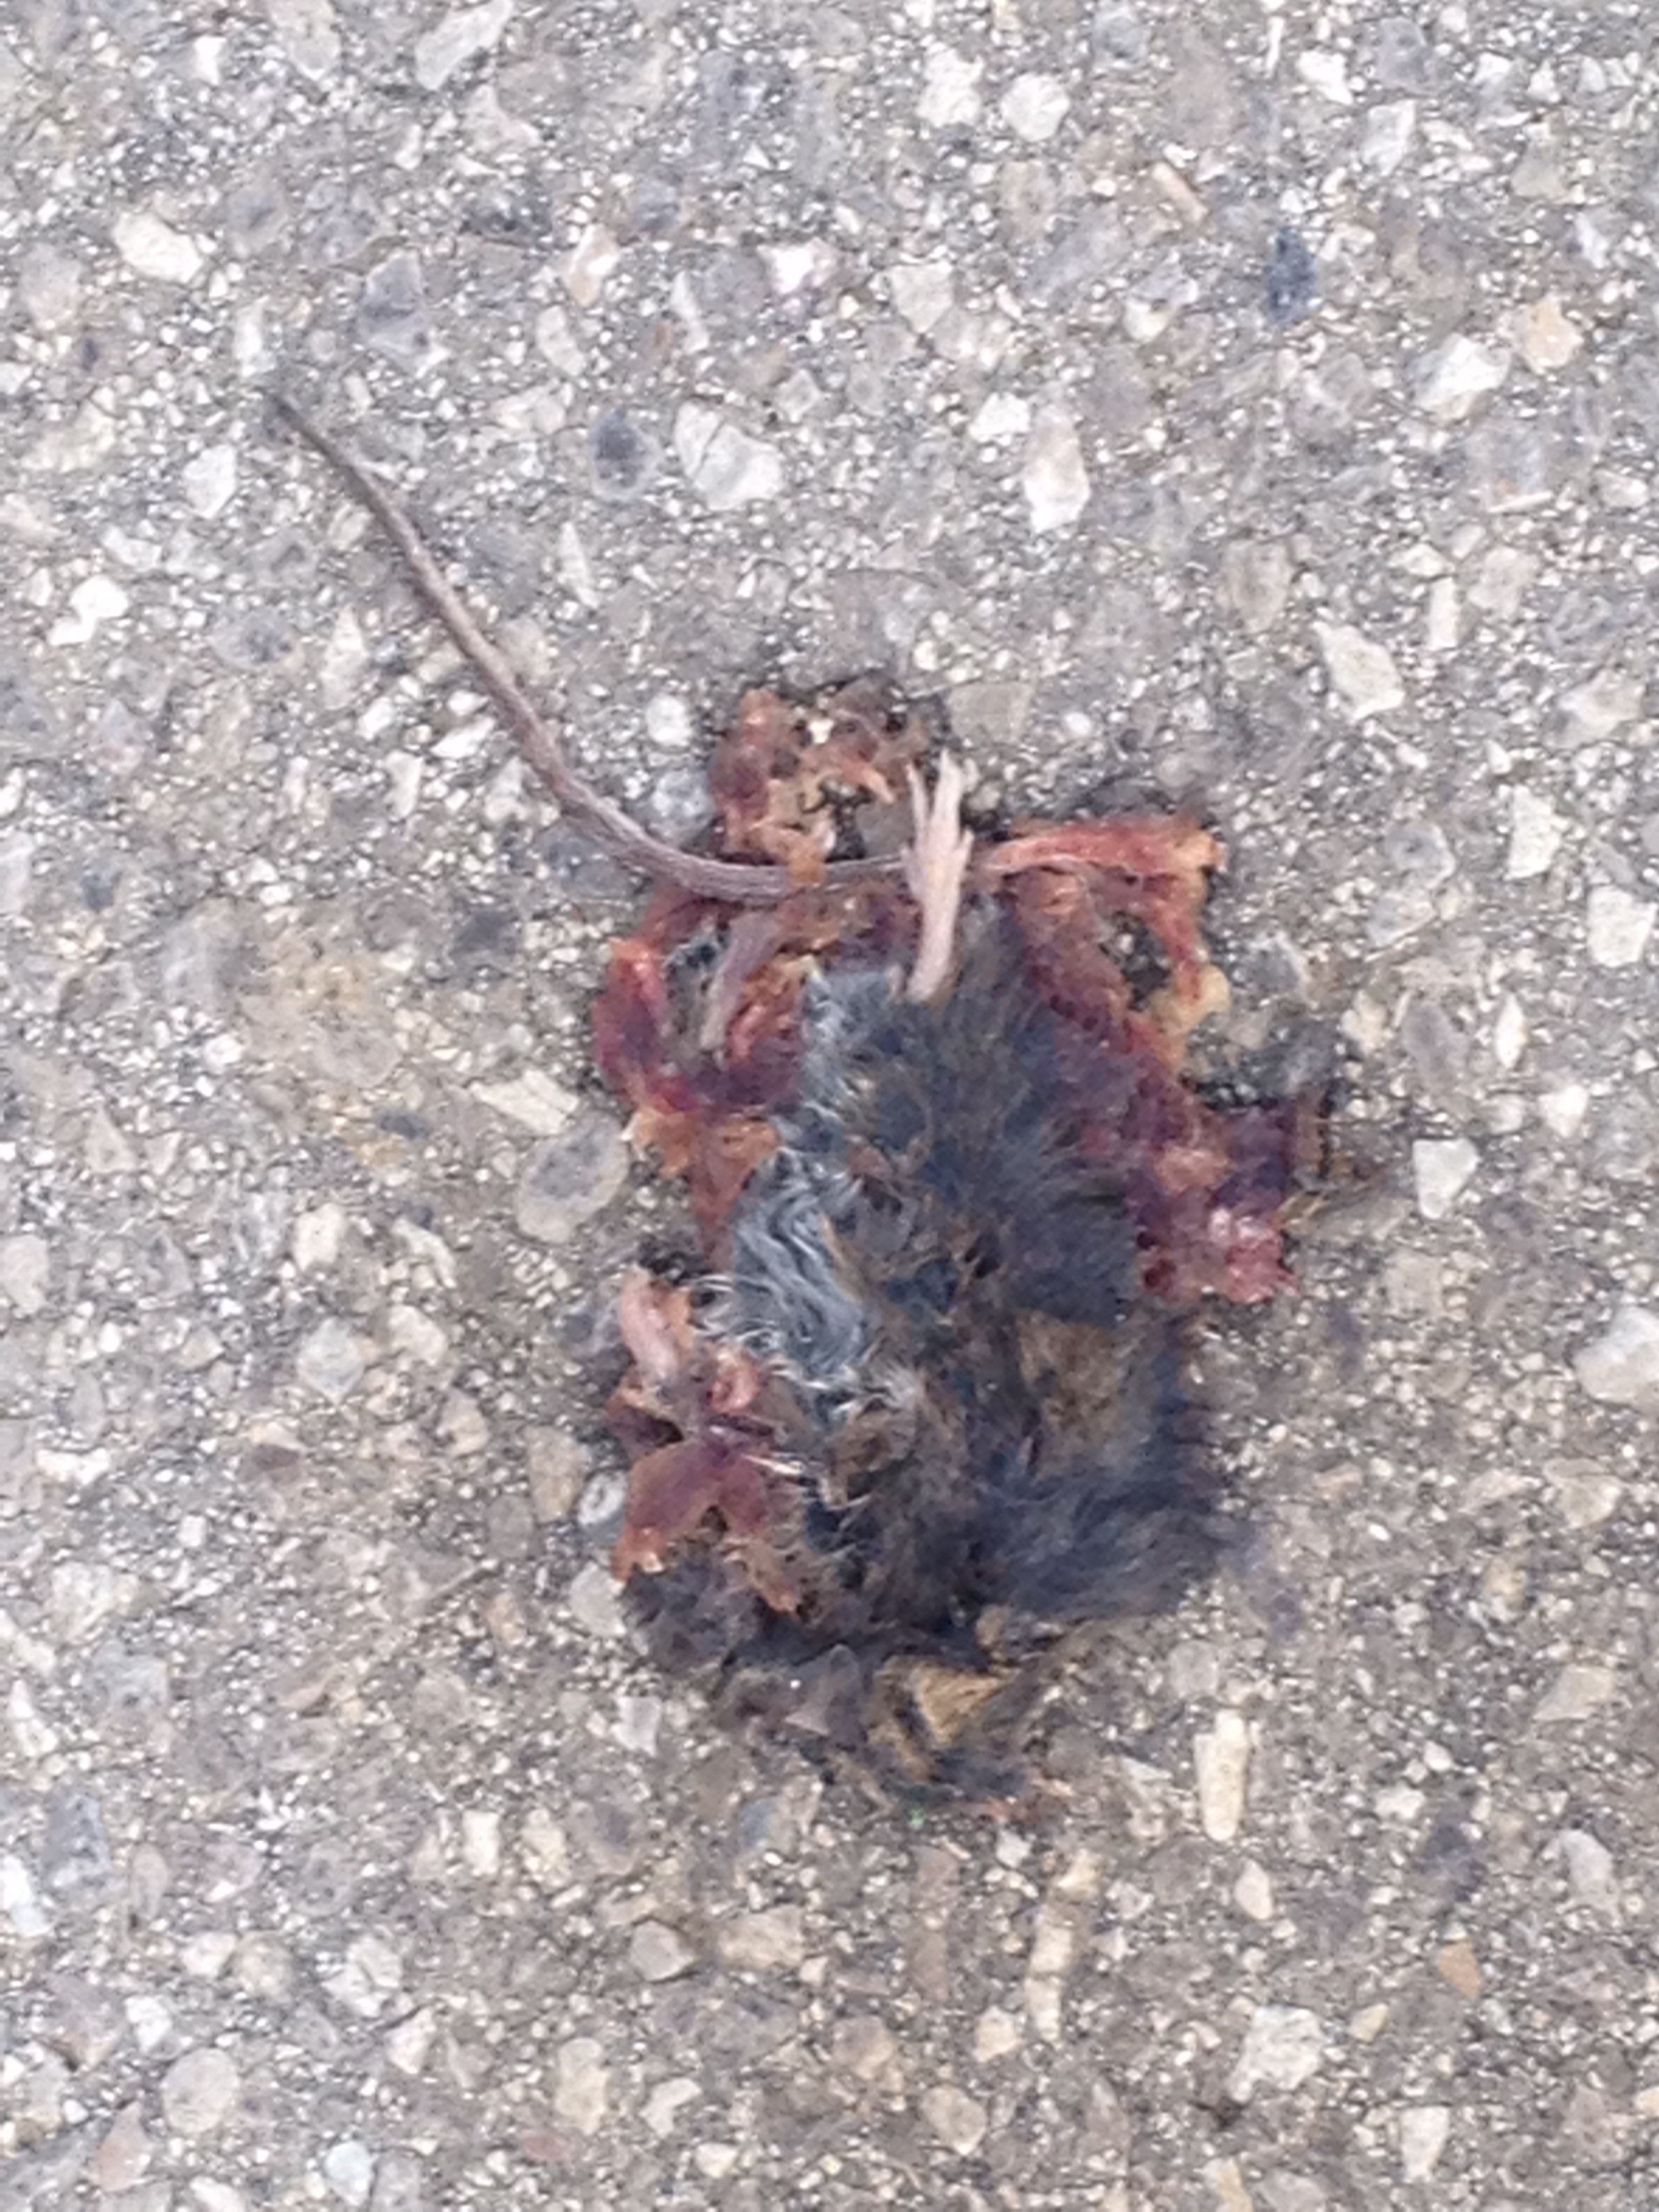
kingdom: Animalia
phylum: Chordata
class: Mammalia
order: Rodentia
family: Muridae
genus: Apodemus
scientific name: Apodemus
